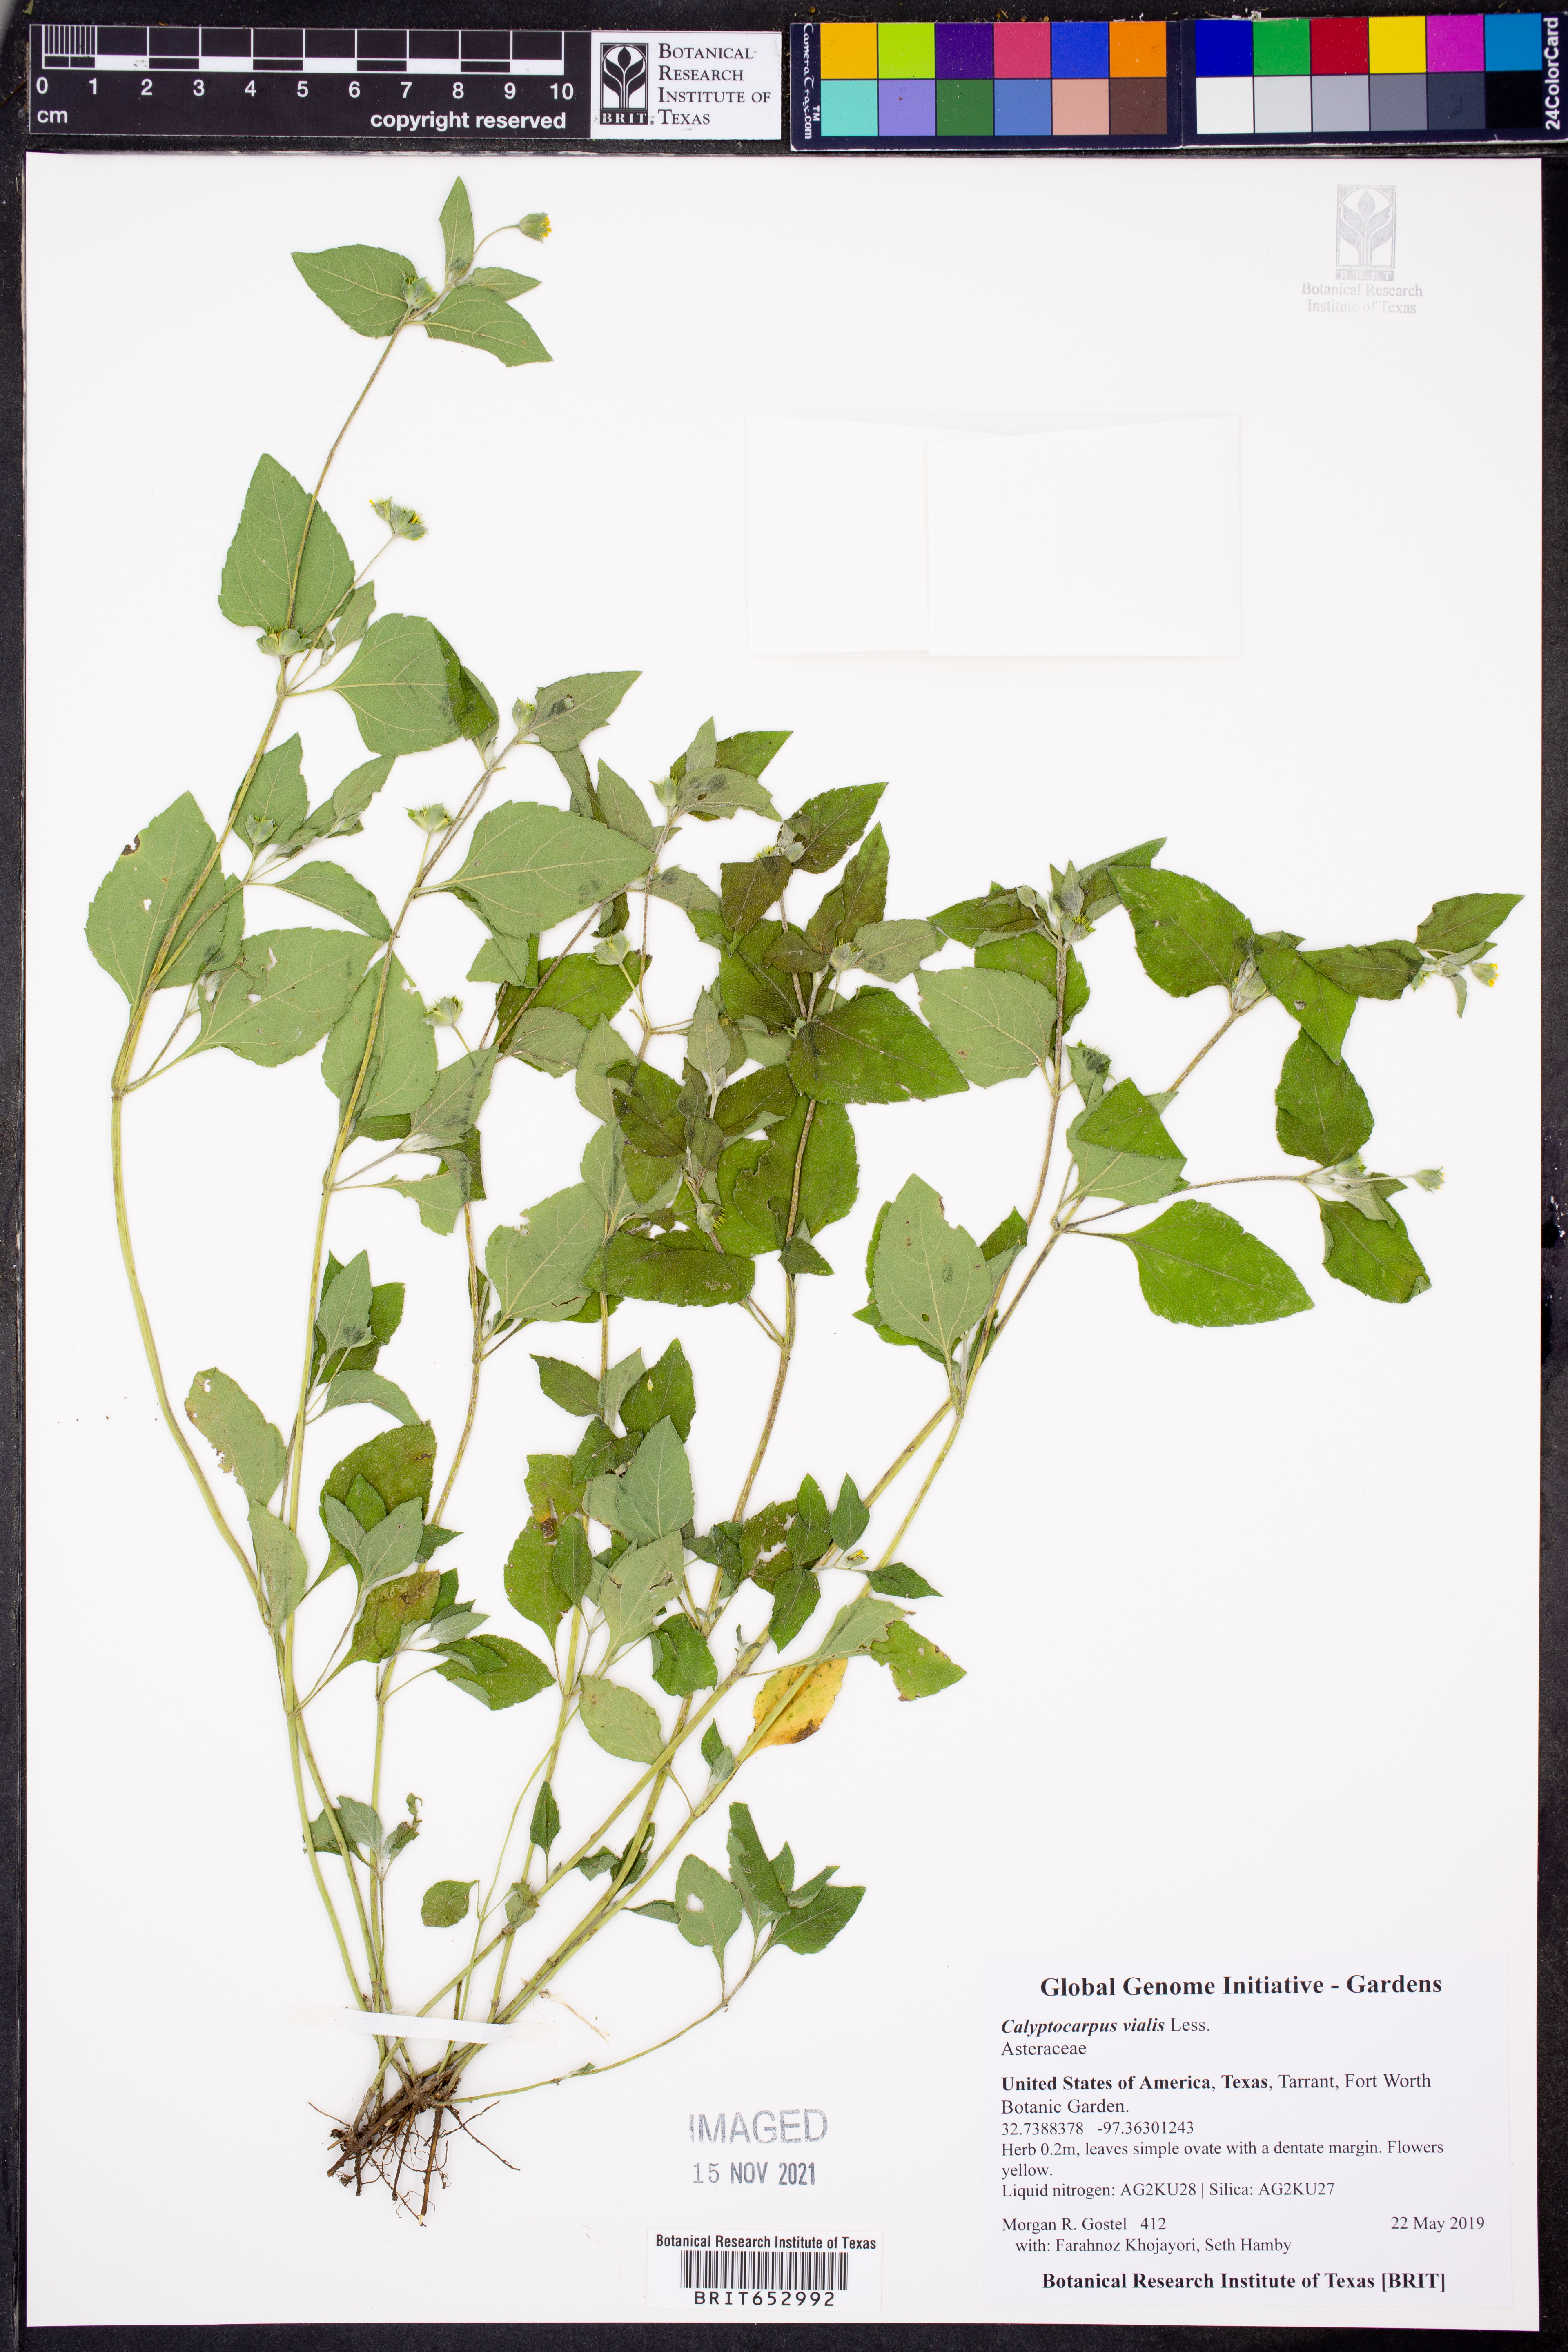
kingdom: Plantae
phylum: Tracheophyta
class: Magnoliopsida
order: Asterales
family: Asteraceae
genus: Calyptocarpus
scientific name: Calyptocarpus vialis
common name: Straggler daisy
